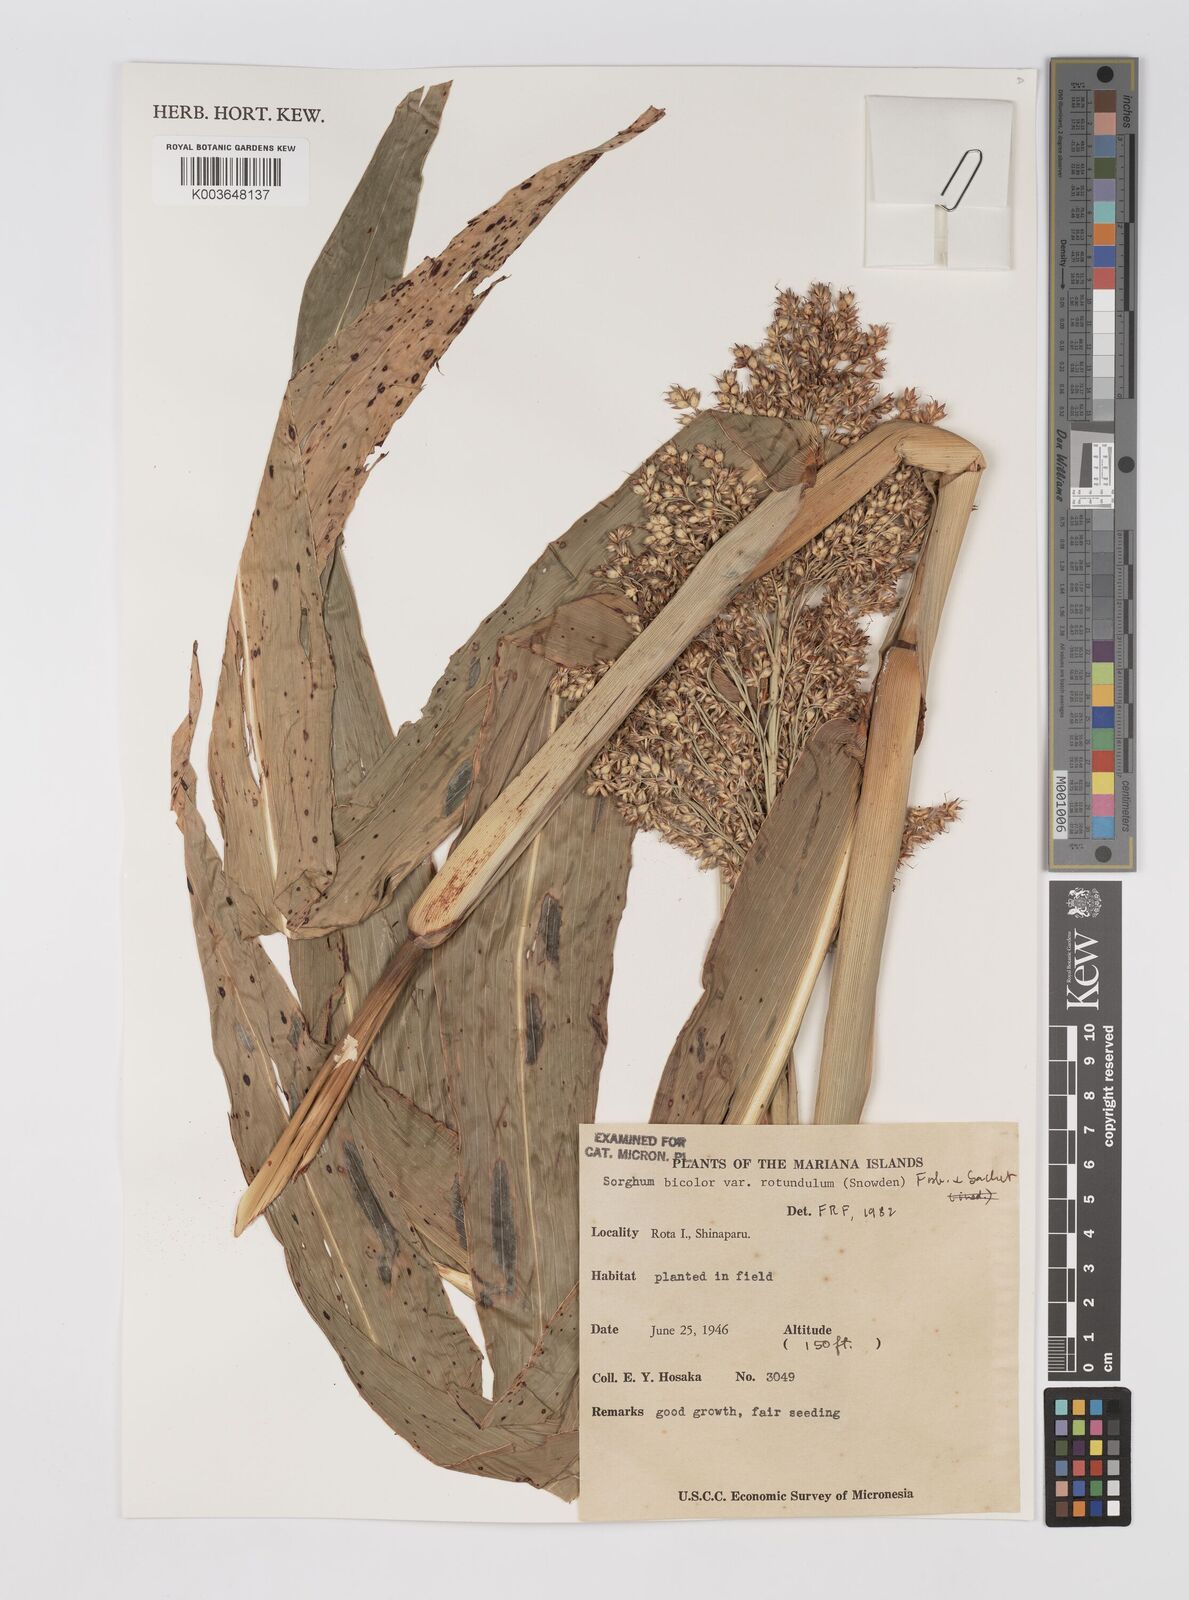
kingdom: Plantae
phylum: Tracheophyta
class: Liliopsida
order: Poales
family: Poaceae
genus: Sorghum
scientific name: Sorghum bicolor
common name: Sorghum
